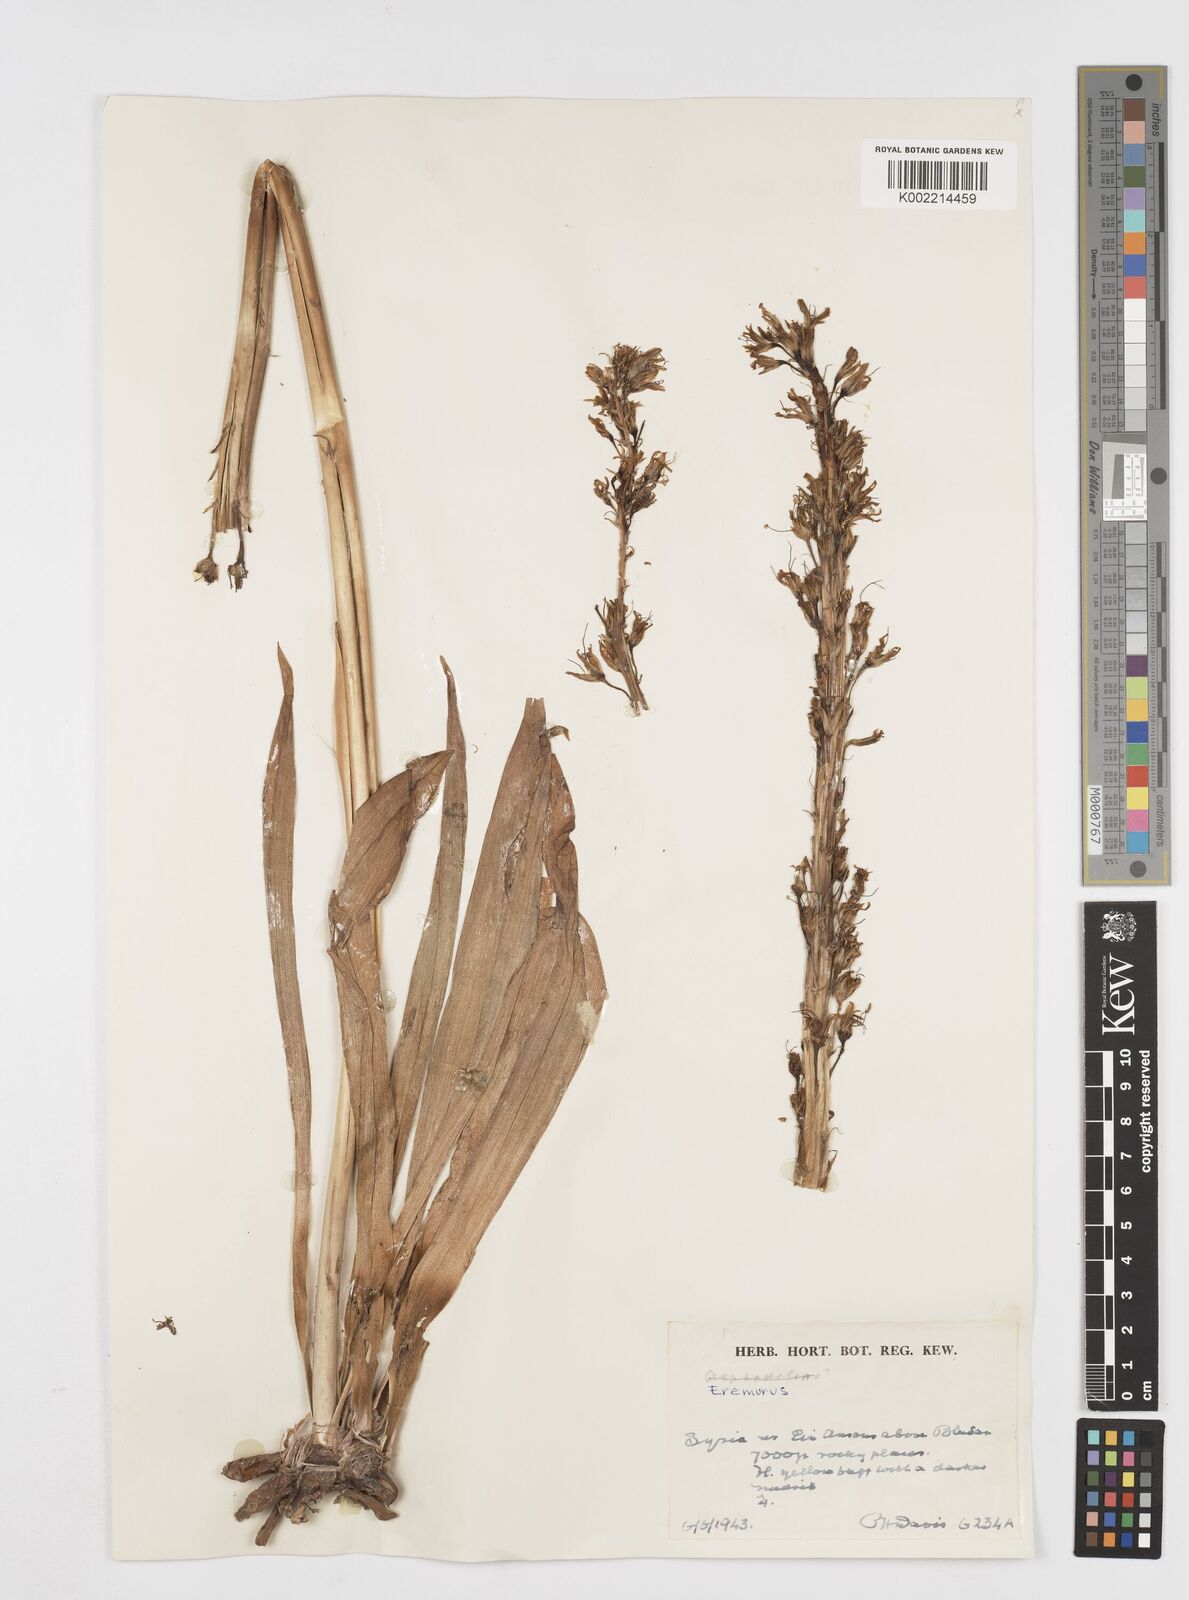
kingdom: Plantae
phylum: Tracheophyta
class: Liliopsida
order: Asparagales
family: Asphodelaceae
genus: Eremurus
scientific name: Eremurus
